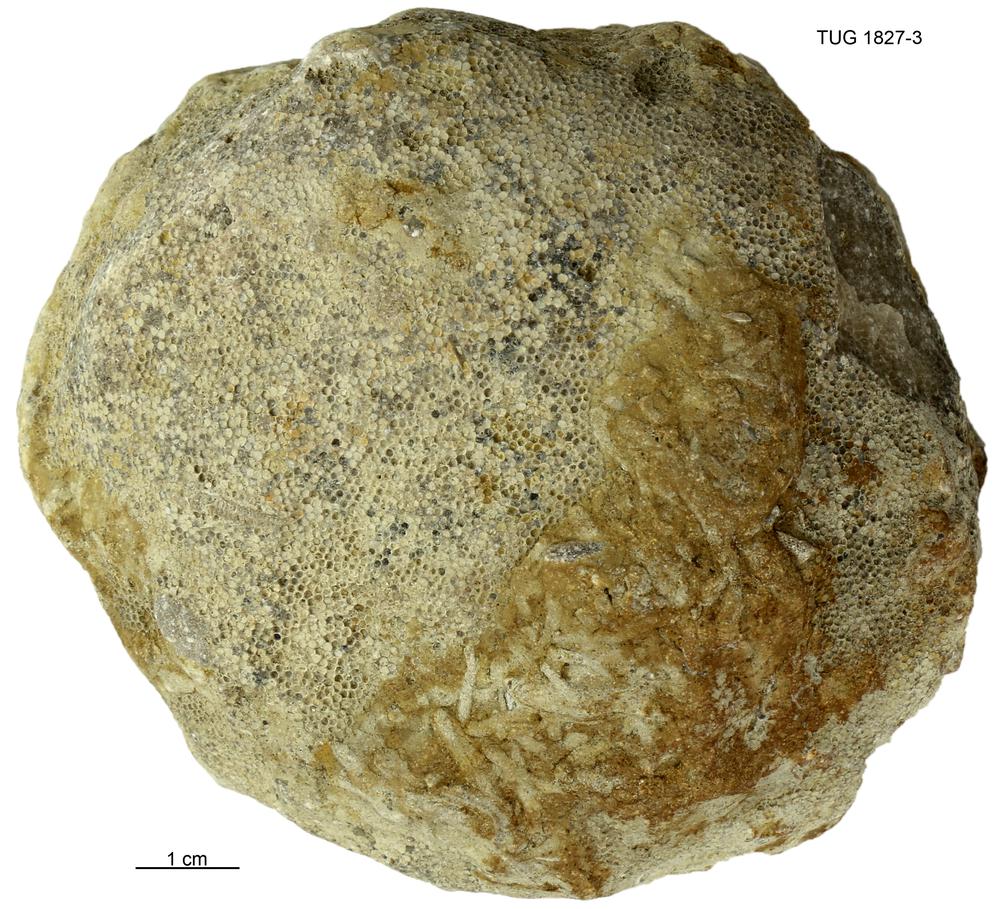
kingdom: Animalia
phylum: Cnidaria
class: Anthozoa
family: Favositidae
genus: Paleofavosites
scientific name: Paleofavosites
